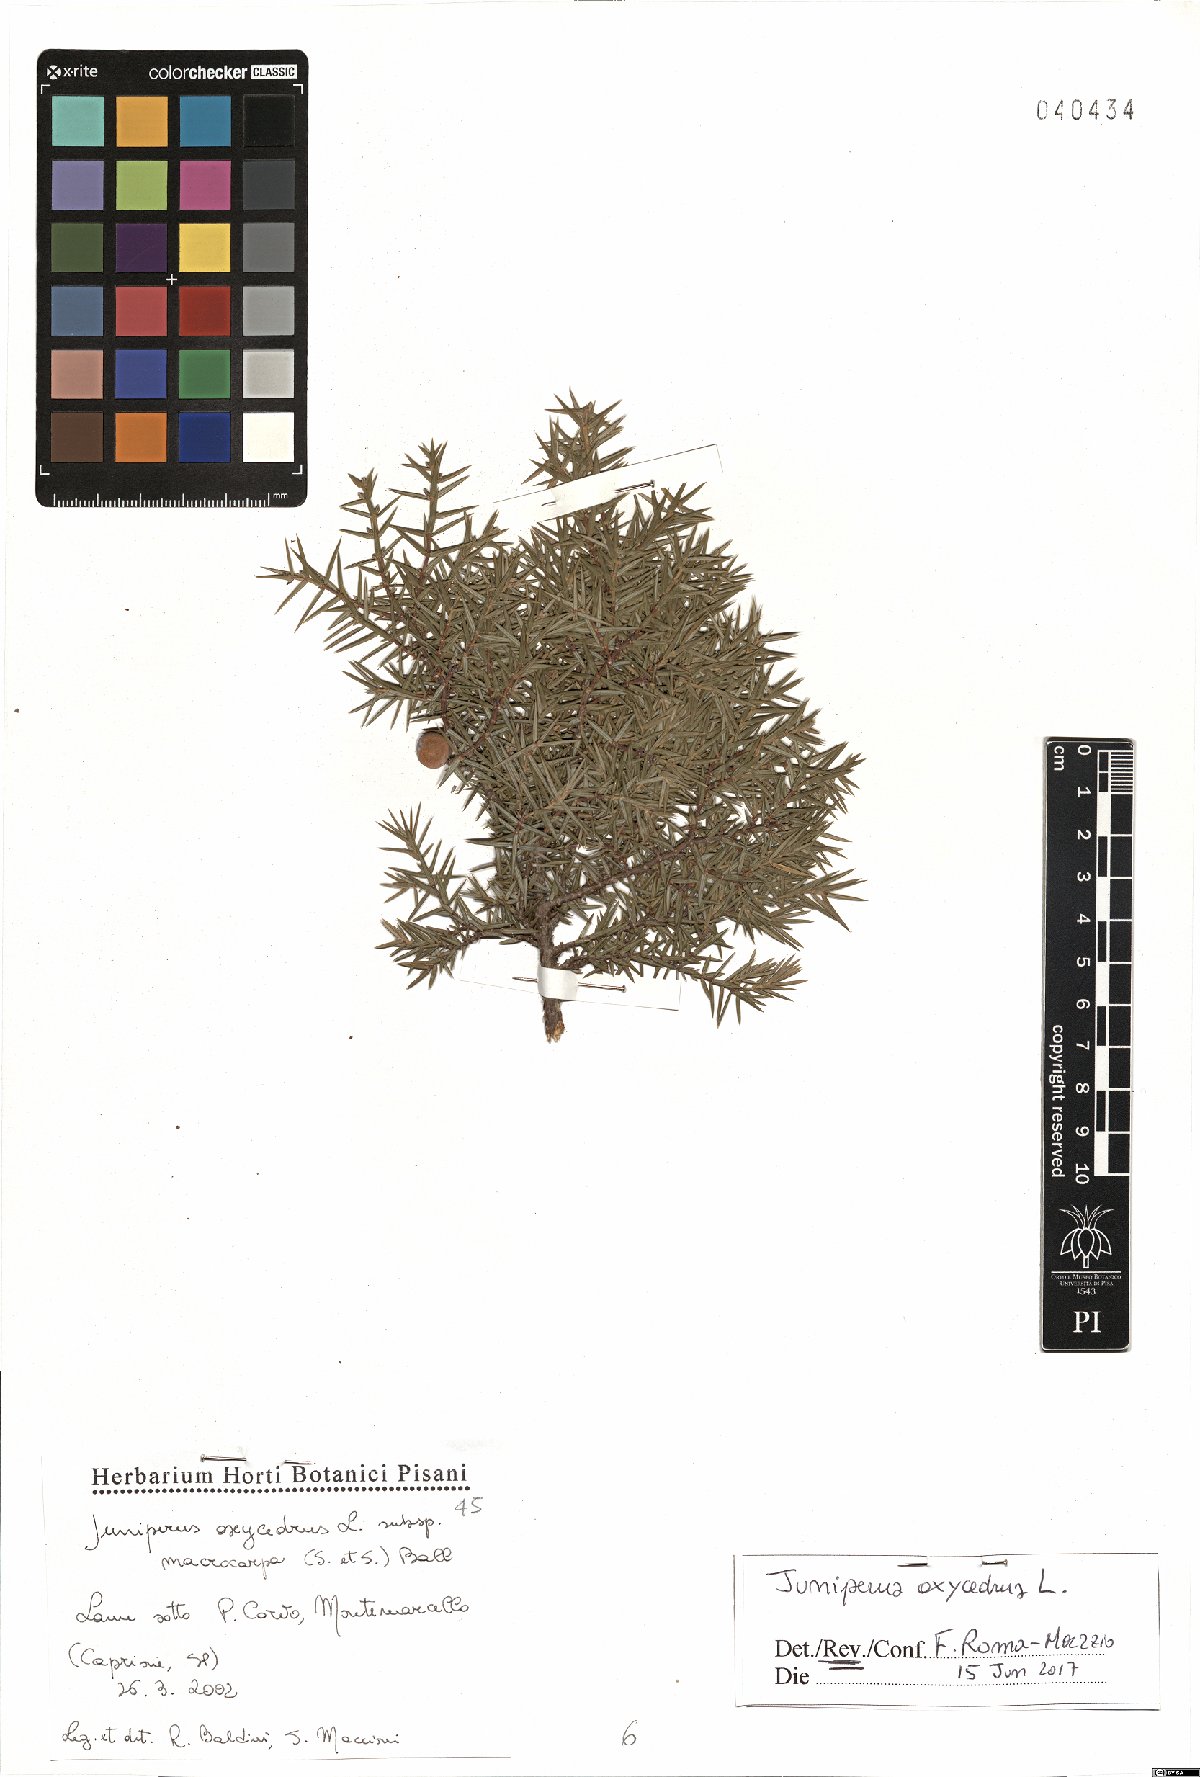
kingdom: Plantae
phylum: Tracheophyta
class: Pinopsida
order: Pinales
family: Cupressaceae
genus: Juniperus
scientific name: Juniperus oxycedrus
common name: Prickly juniper
